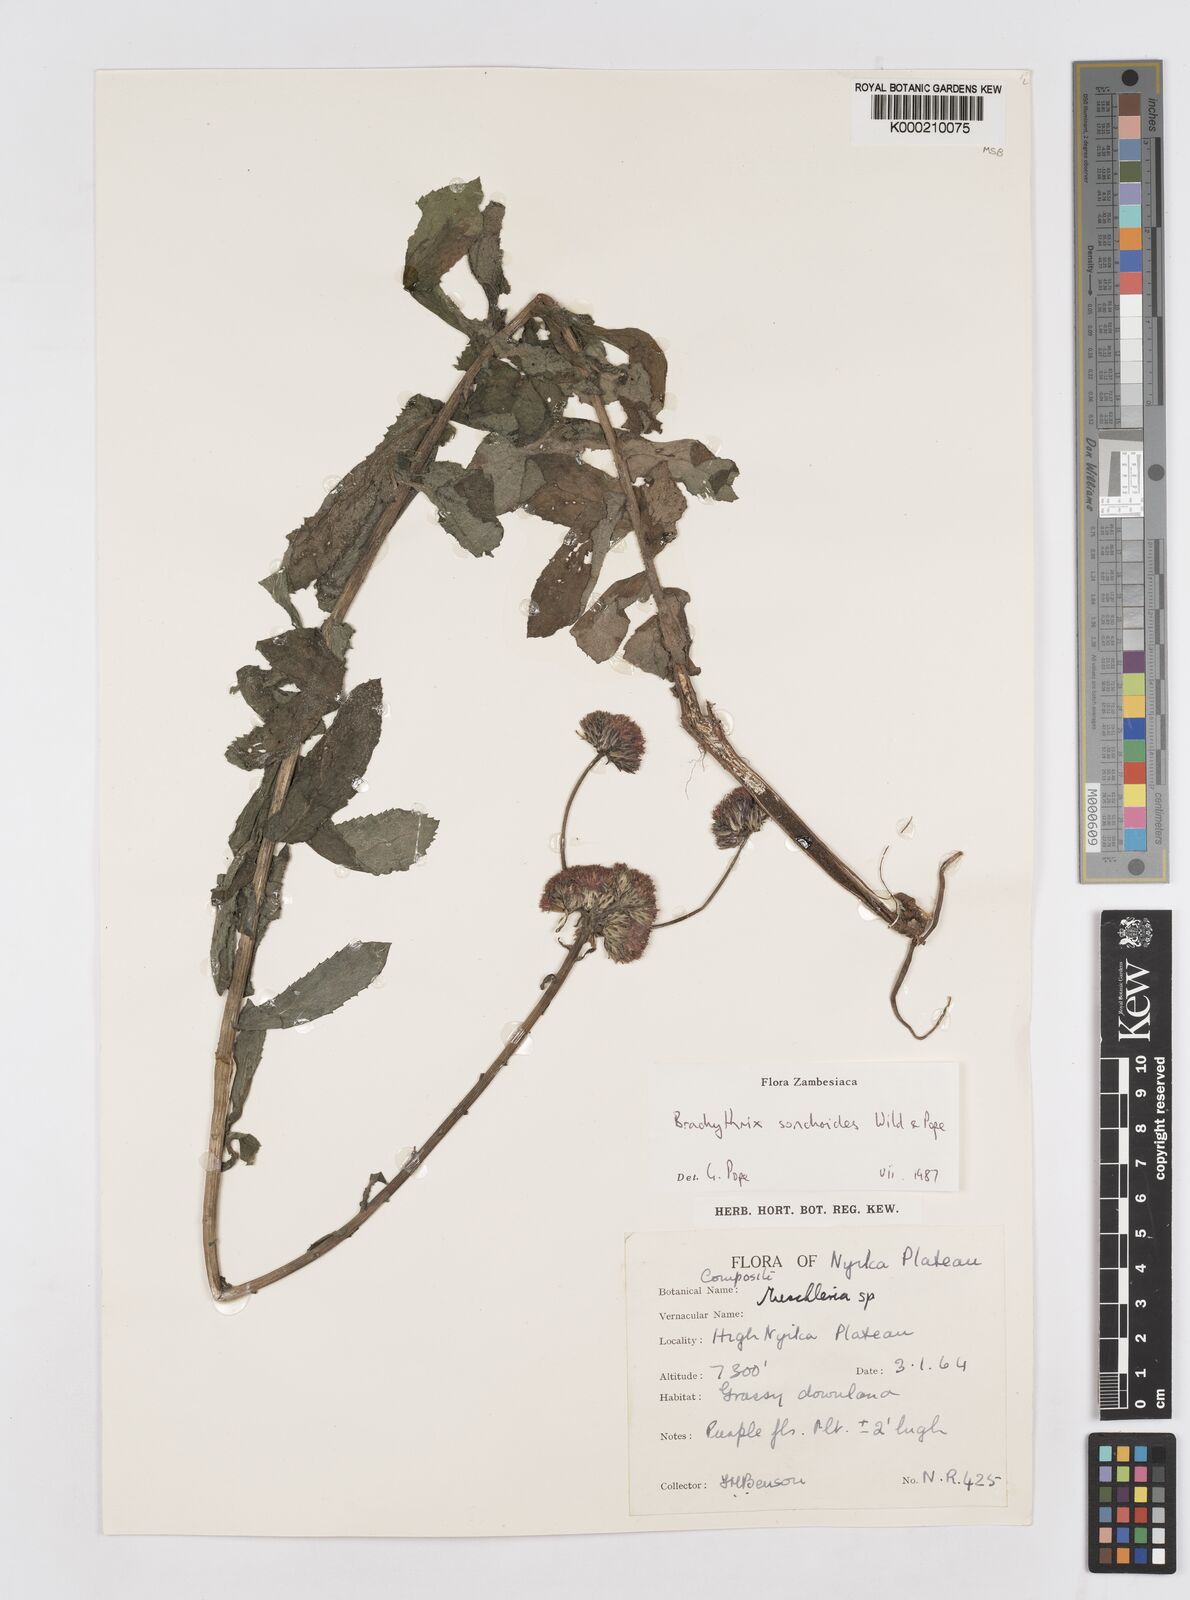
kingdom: Plantae
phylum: Tracheophyta
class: Magnoliopsida
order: Asterales
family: Asteraceae
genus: Brachythrix
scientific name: Brachythrix sonchoides
